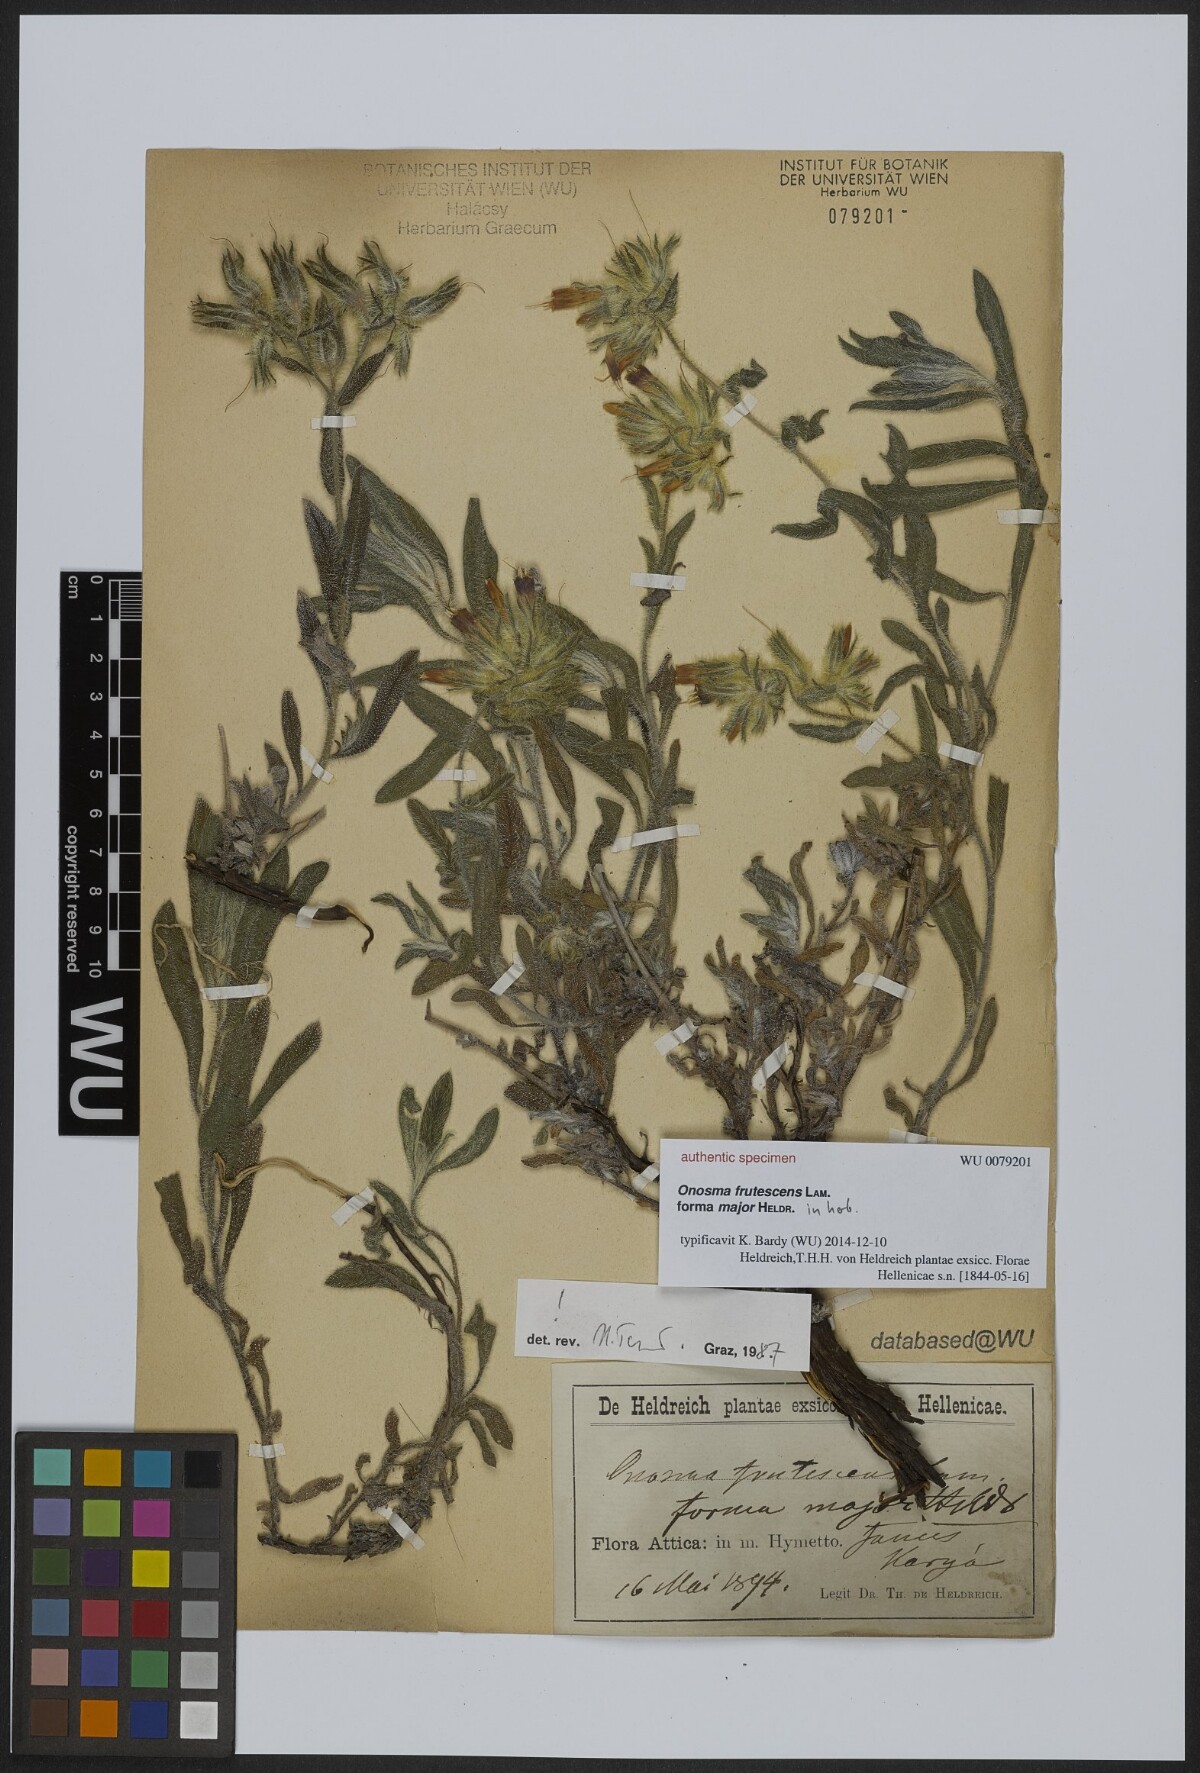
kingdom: Plantae
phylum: Tracheophyta
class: Magnoliopsida
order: Boraginales
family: Boraginaceae
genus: Onosma
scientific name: Onosma frutescens
